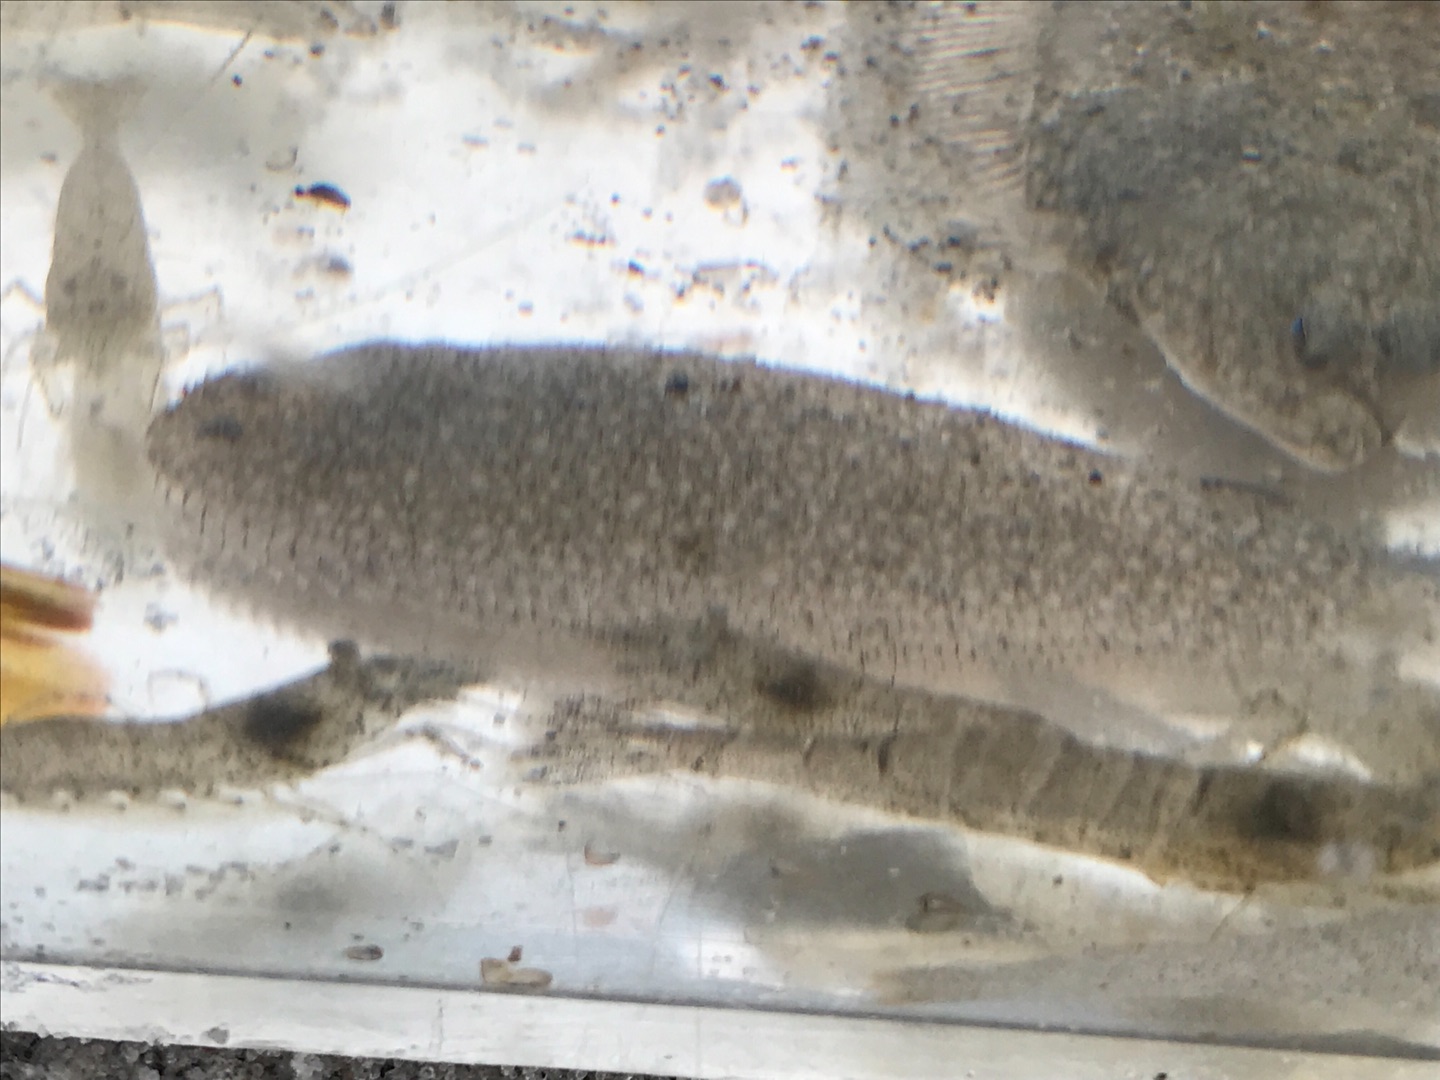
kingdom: Animalia
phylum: Chordata
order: Pleuronectiformes
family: Soleidae
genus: Solea
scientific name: Solea solea
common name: Tunge
